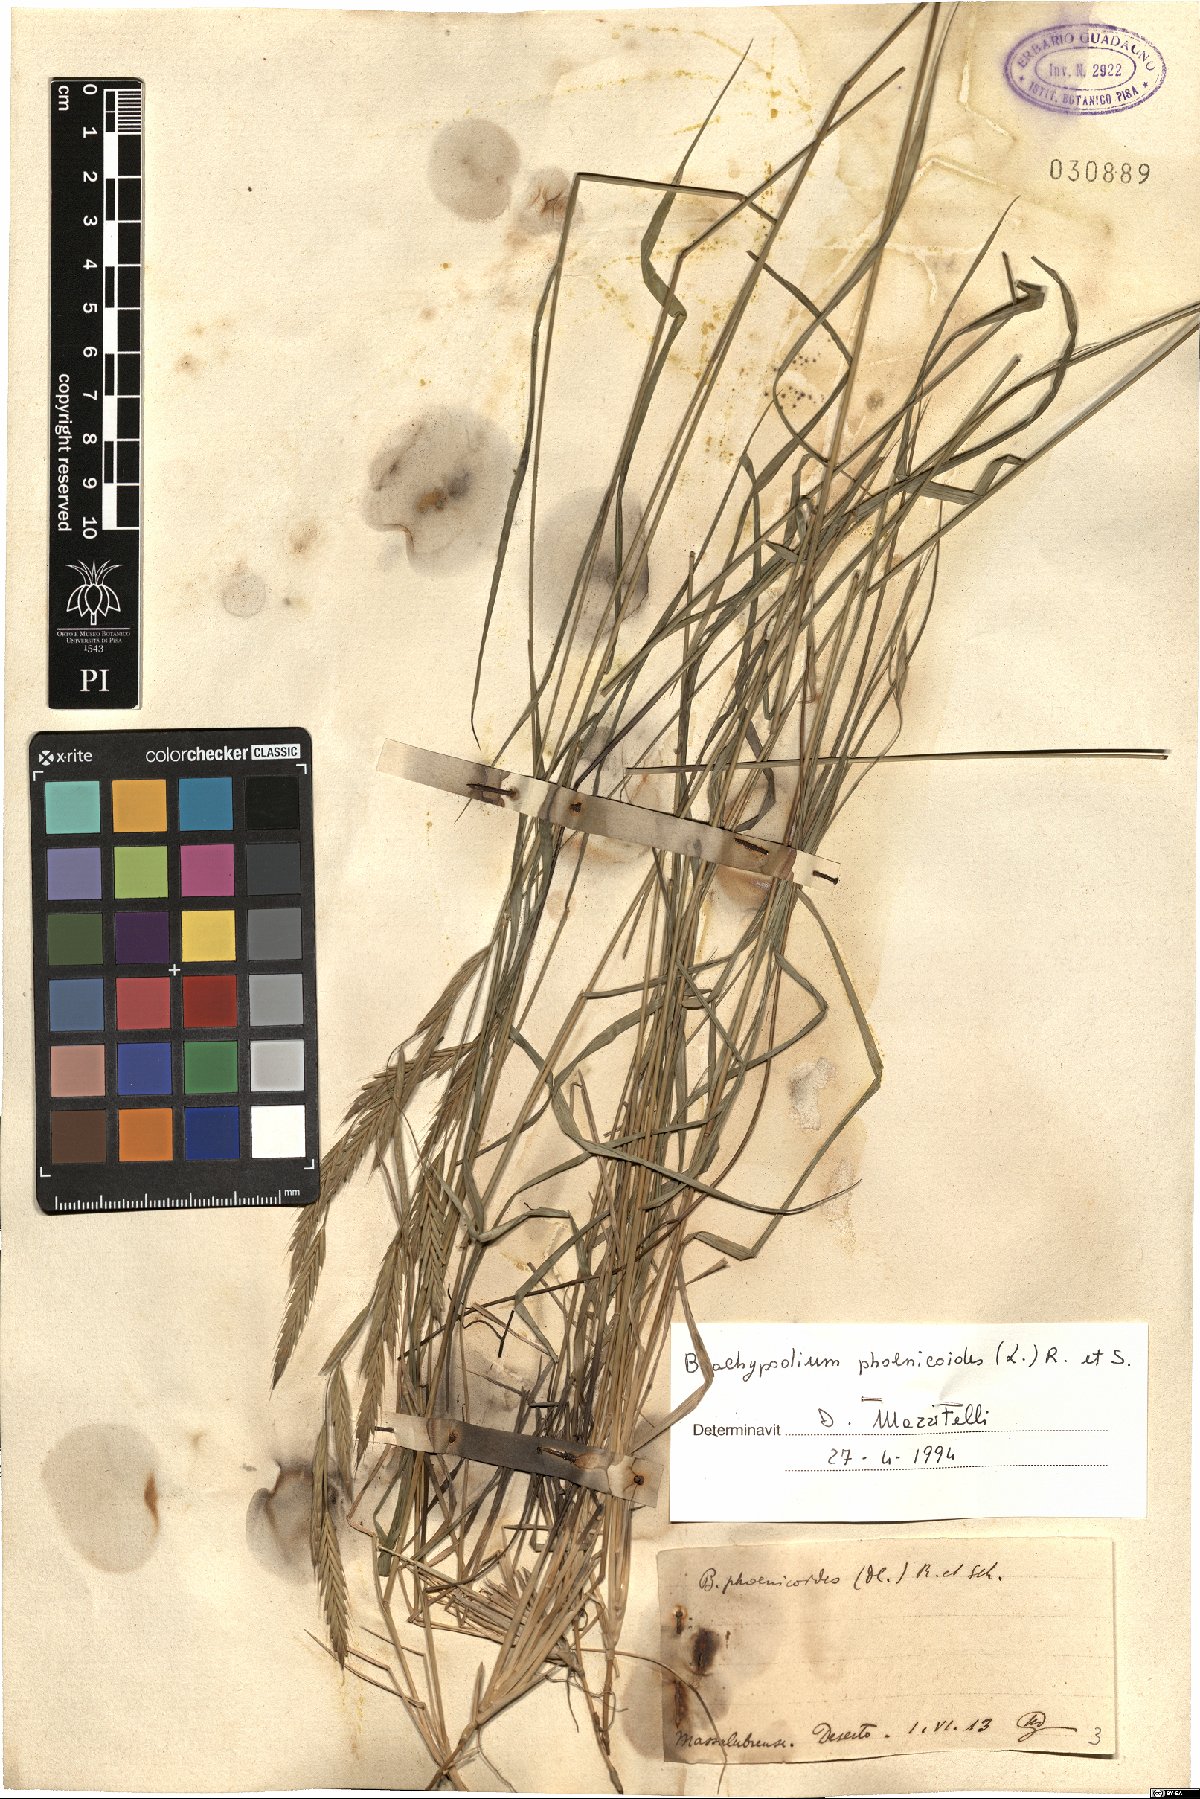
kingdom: Plantae
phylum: Tracheophyta
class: Liliopsida
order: Poales
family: Poaceae
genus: Brachypodium
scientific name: Brachypodium phoenicoides
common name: Thinleaf false brome
